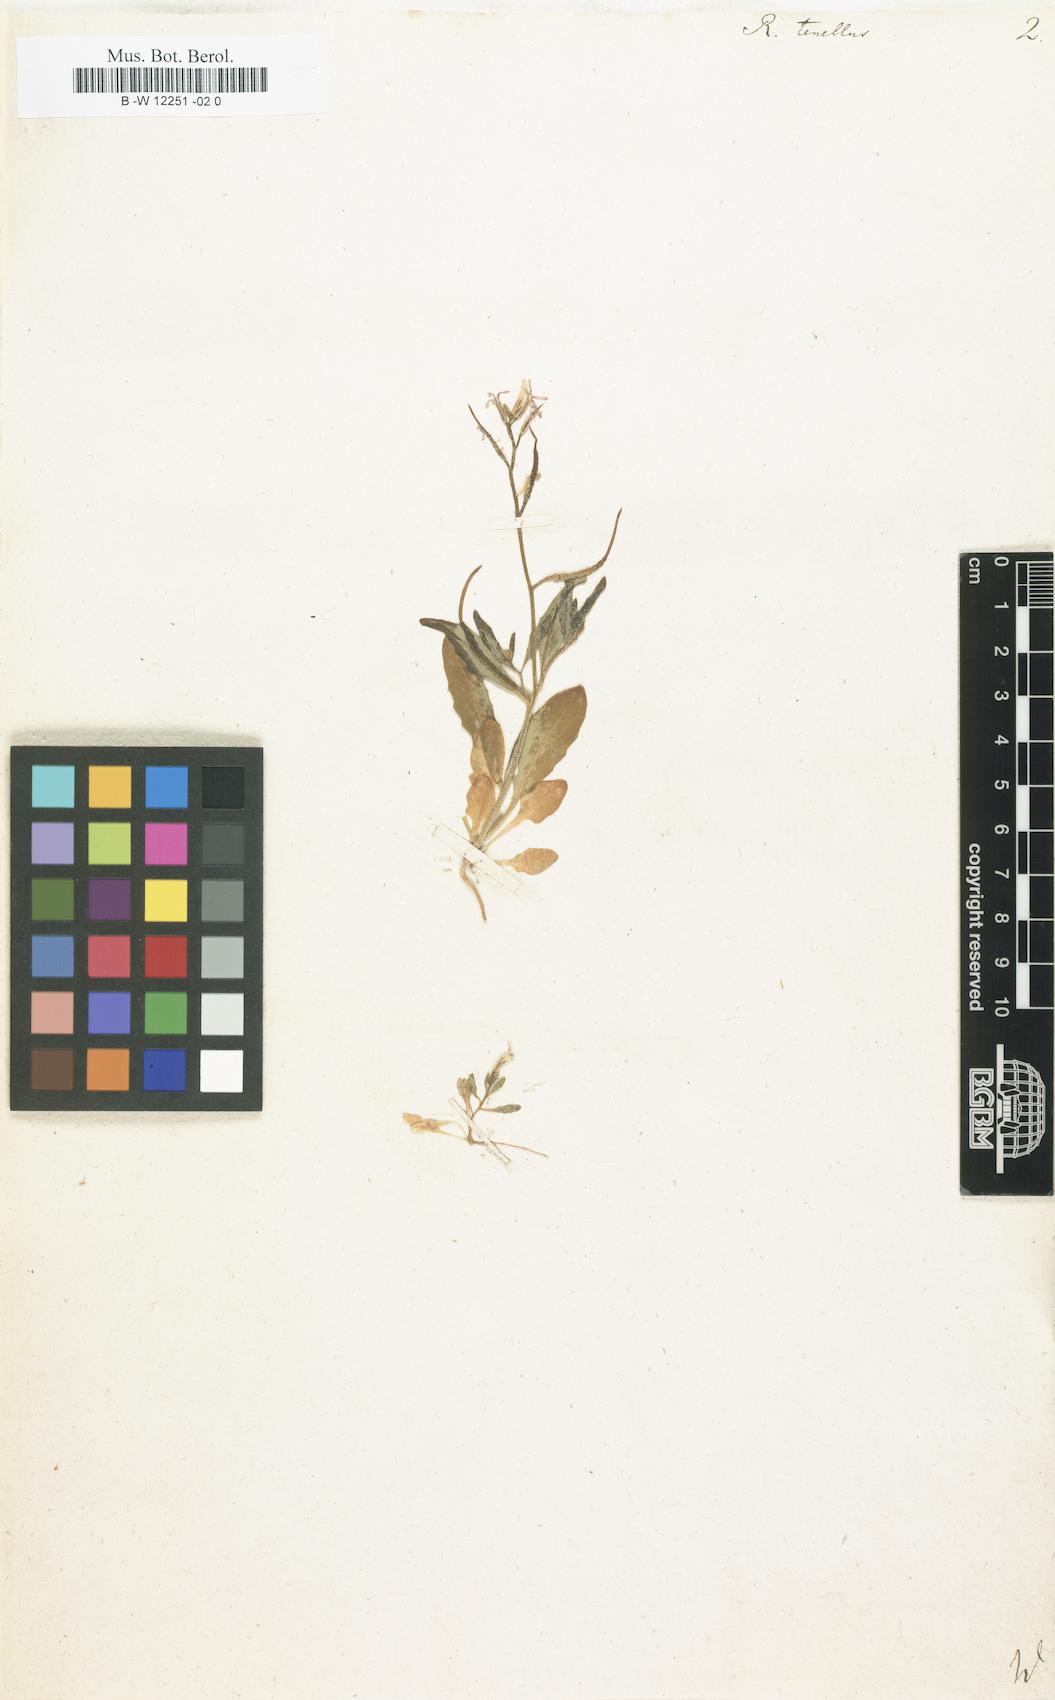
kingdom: Plantae
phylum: Tracheophyta
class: Magnoliopsida
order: Brassicales
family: Brassicaceae
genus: Chorispora
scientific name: Chorispora tenella
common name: Crossflower
